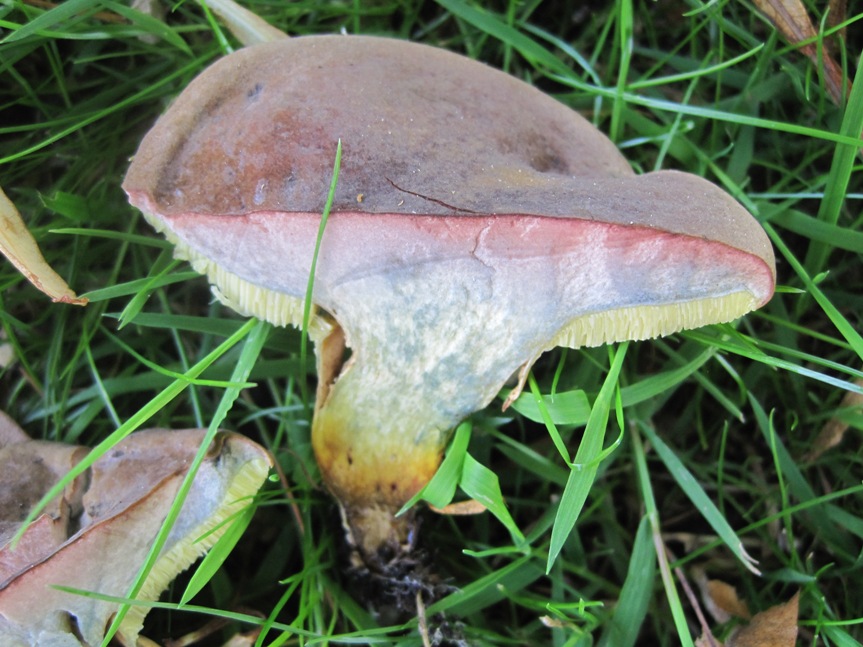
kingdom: Fungi
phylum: Basidiomycota
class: Agaricomycetes
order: Boletales
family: Boletaceae
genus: Hortiboletus
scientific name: Hortiboletus bubalinus
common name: aurora-rørhat
